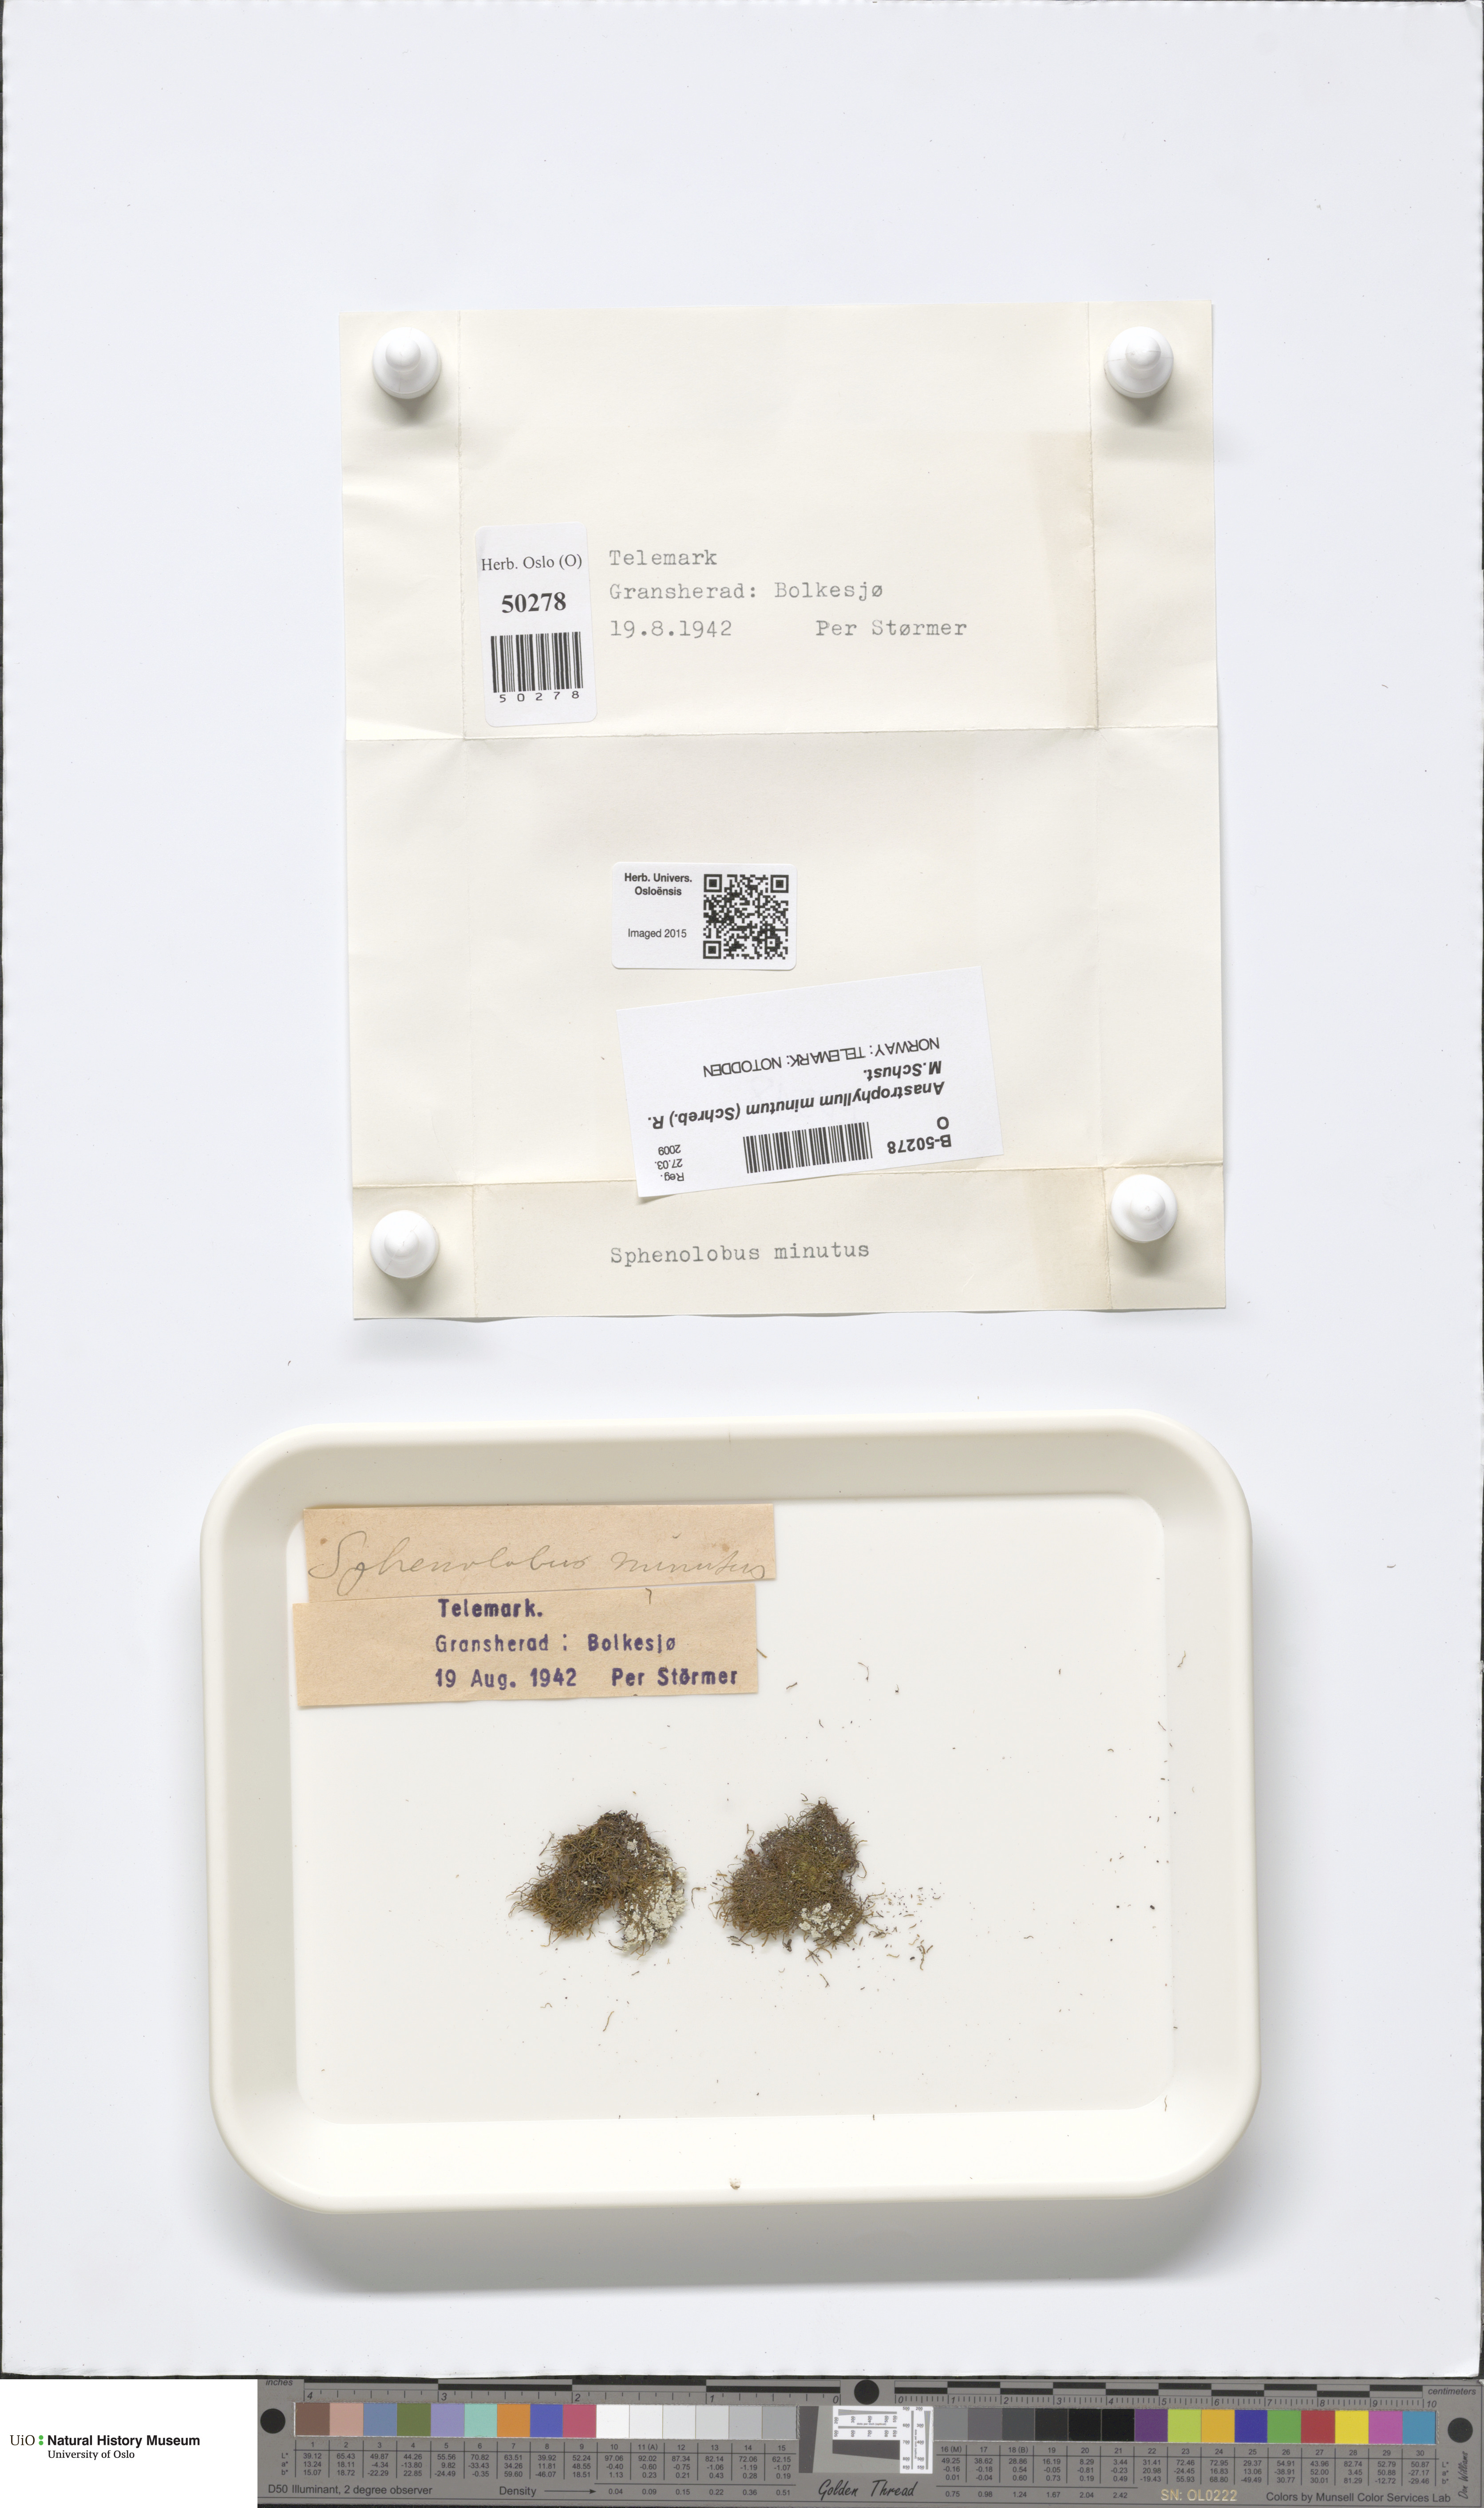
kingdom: Plantae
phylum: Marchantiophyta
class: Jungermanniopsida
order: Jungermanniales
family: Anastrophyllaceae
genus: Sphenolobus
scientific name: Sphenolobus minutus
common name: Comb notchwort
